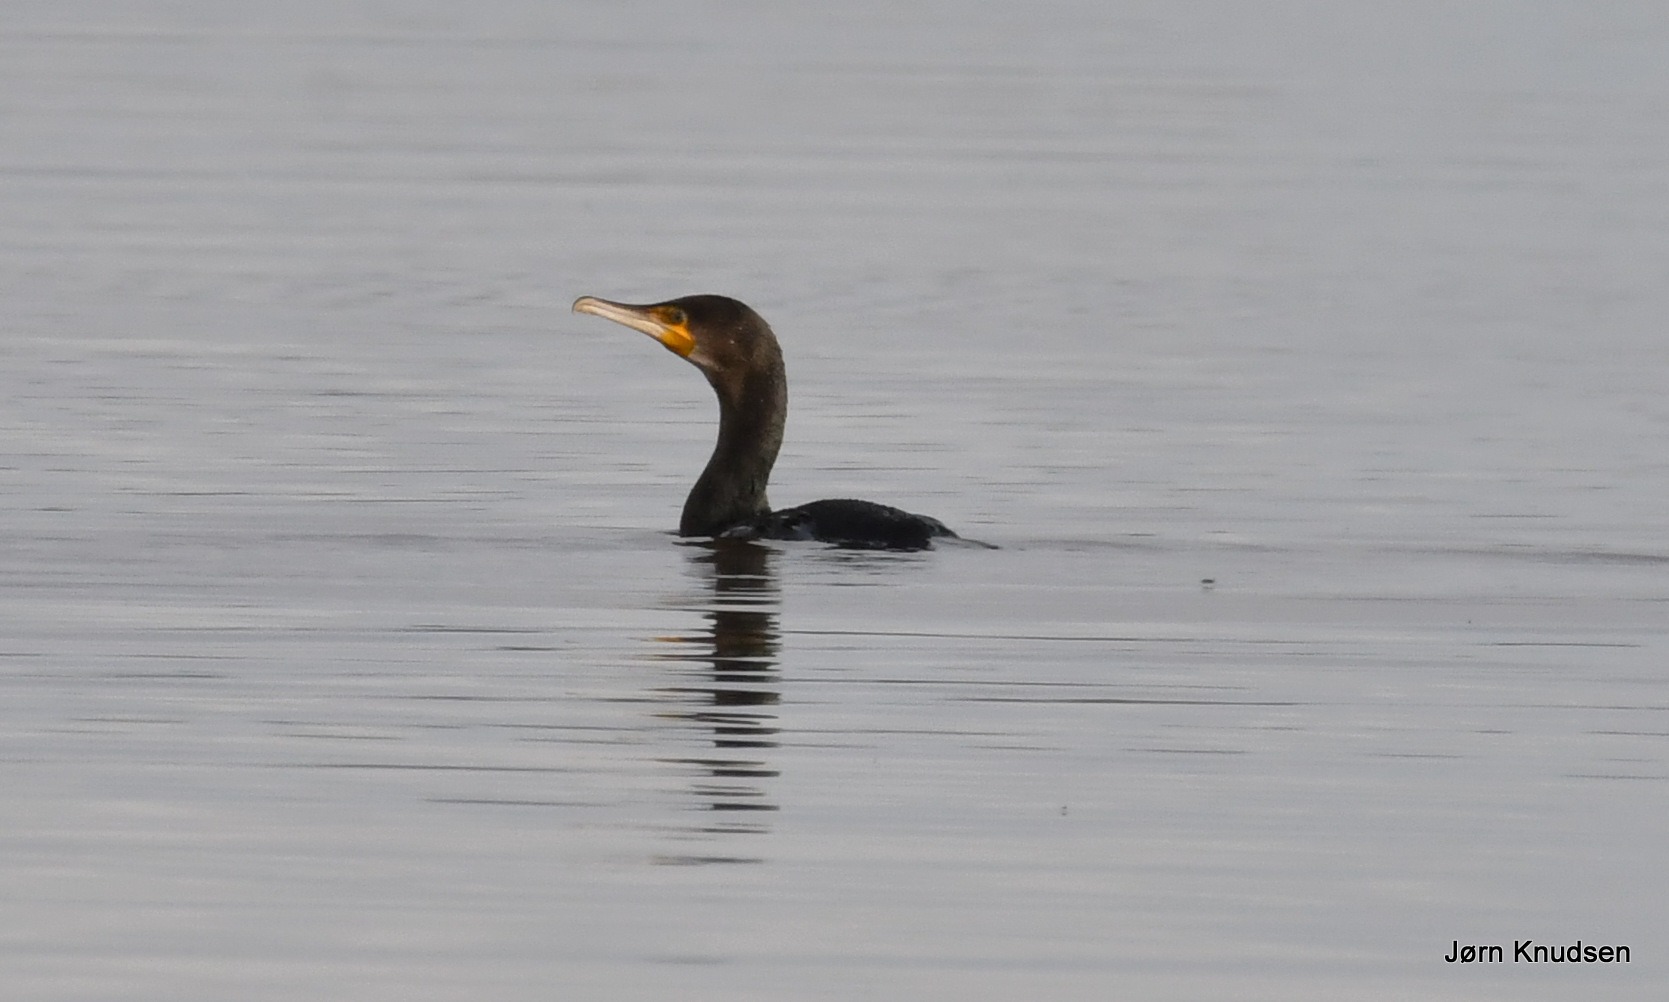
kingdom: Animalia
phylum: Chordata
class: Aves
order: Suliformes
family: Phalacrocoracidae
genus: Phalacrocorax
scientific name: Phalacrocorax carbo
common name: Skarv
